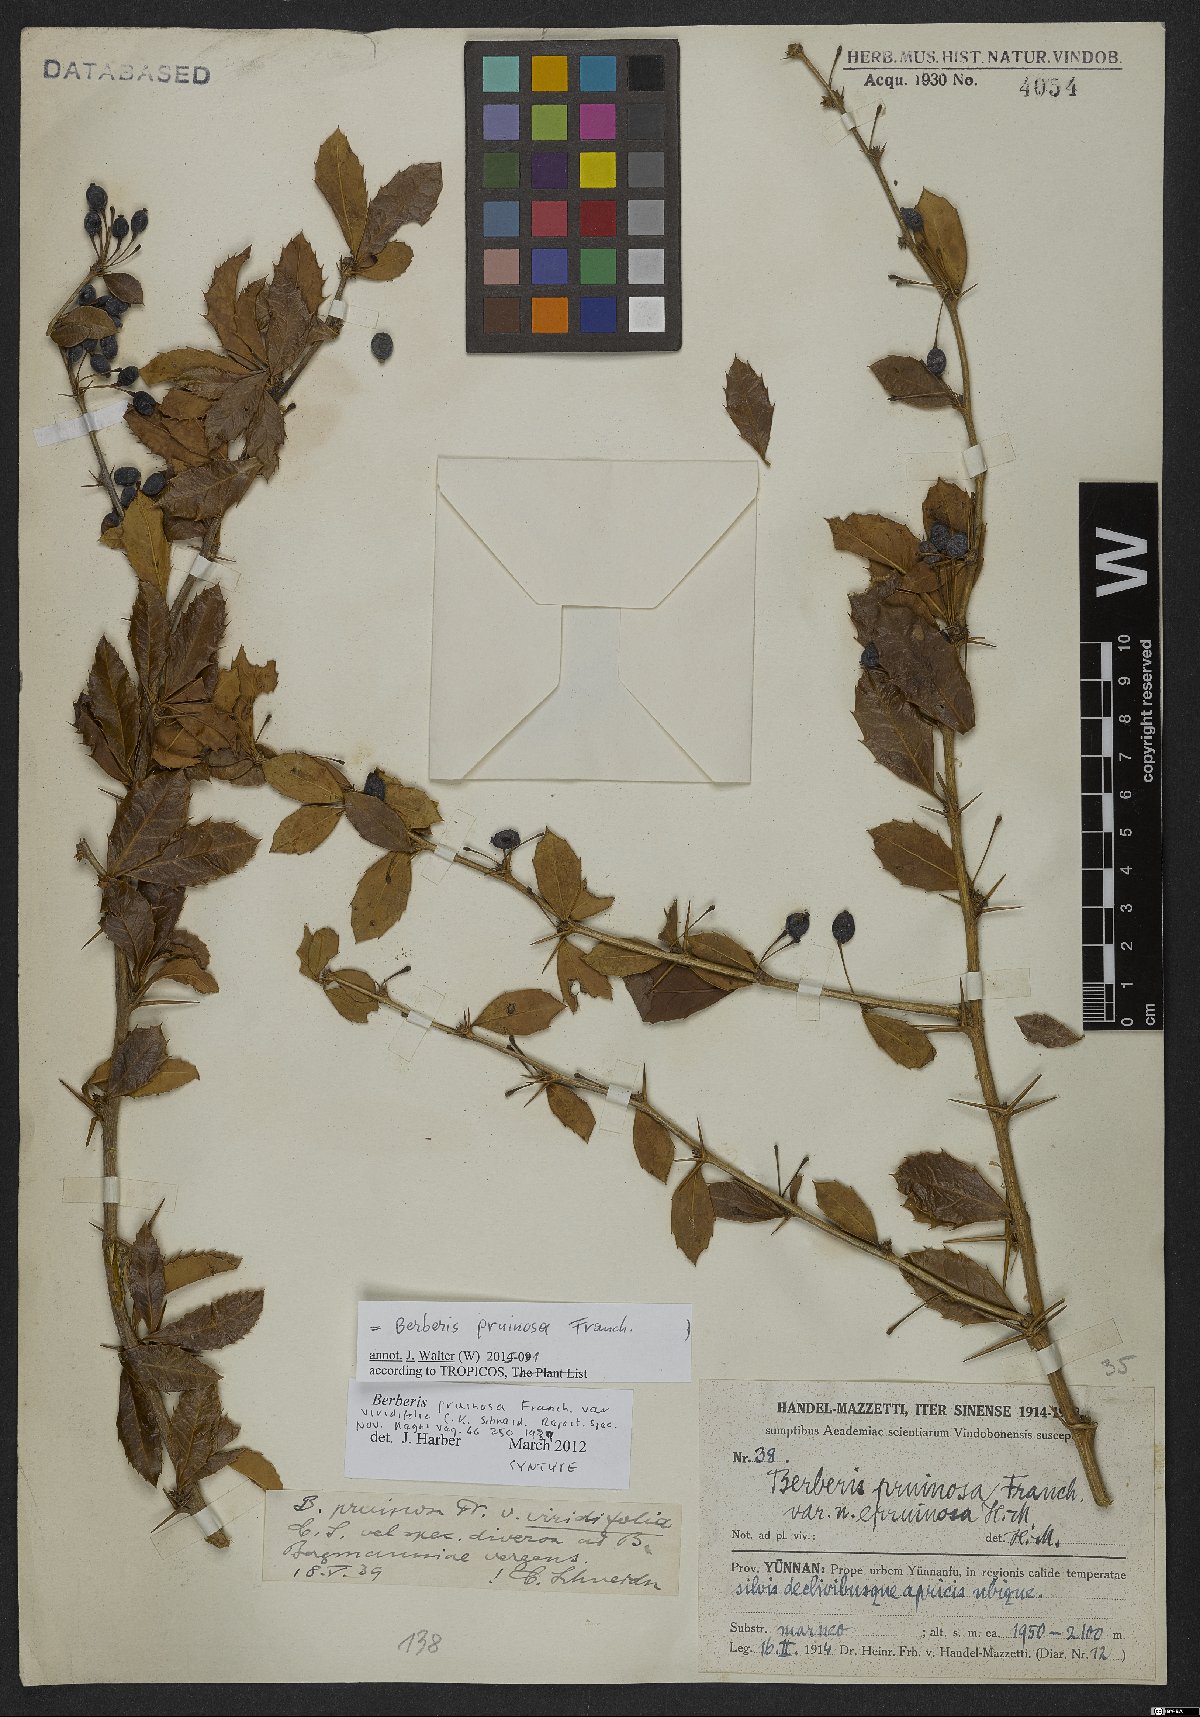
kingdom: Plantae
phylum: Tracheophyta
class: Magnoliopsida
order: Ranunculales
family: Berberidaceae
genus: Berberis
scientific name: Berberis pruinosa
